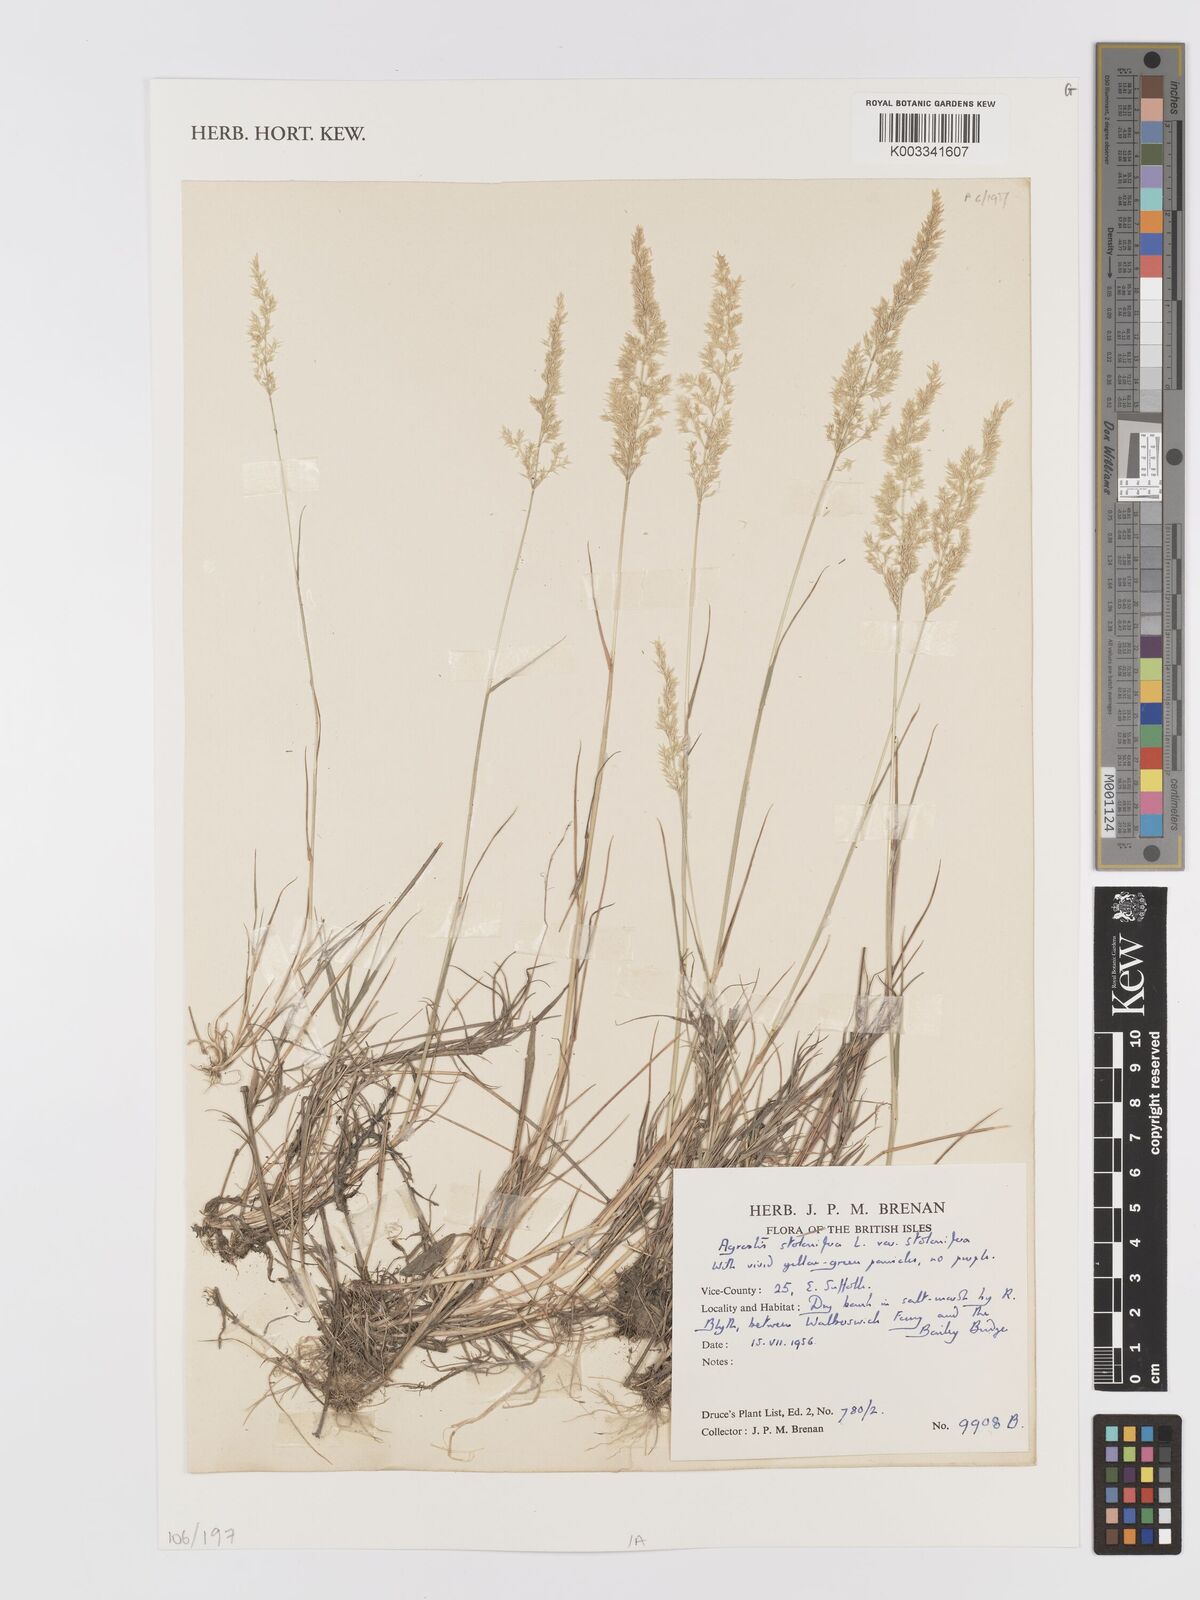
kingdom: Plantae
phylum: Tracheophyta
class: Liliopsida
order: Poales
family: Poaceae
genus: Agrostis
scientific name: Agrostis stolonifera
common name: Creeping bentgrass
